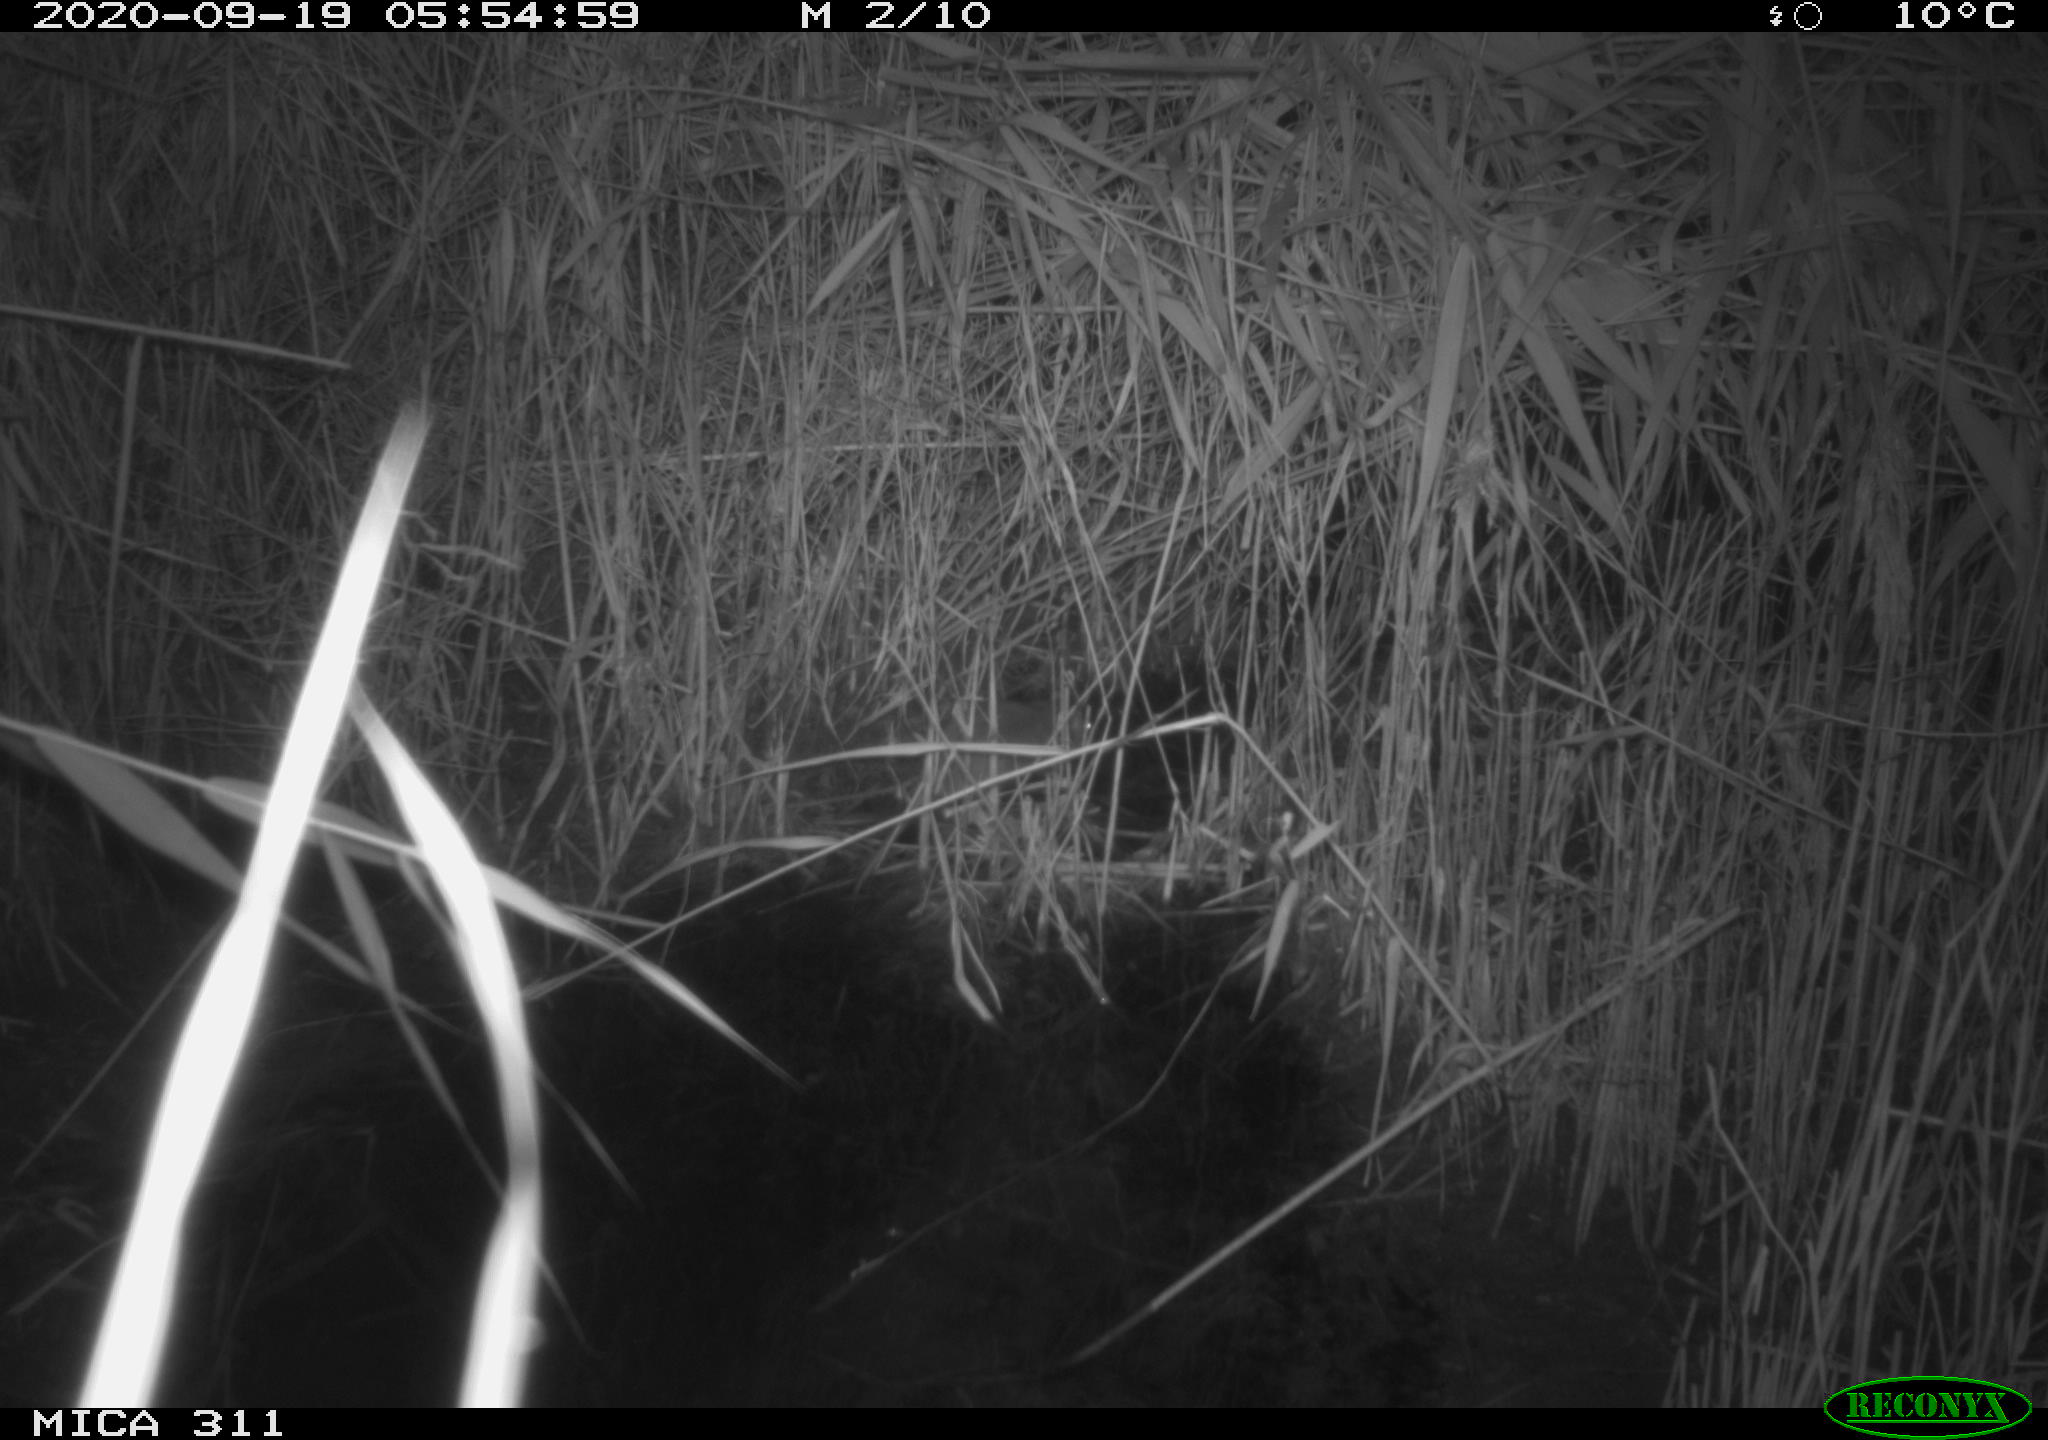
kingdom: Animalia
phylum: Chordata
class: Mammalia
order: Rodentia
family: Muridae
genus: Rattus
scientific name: Rattus norvegicus
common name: Brown rat
